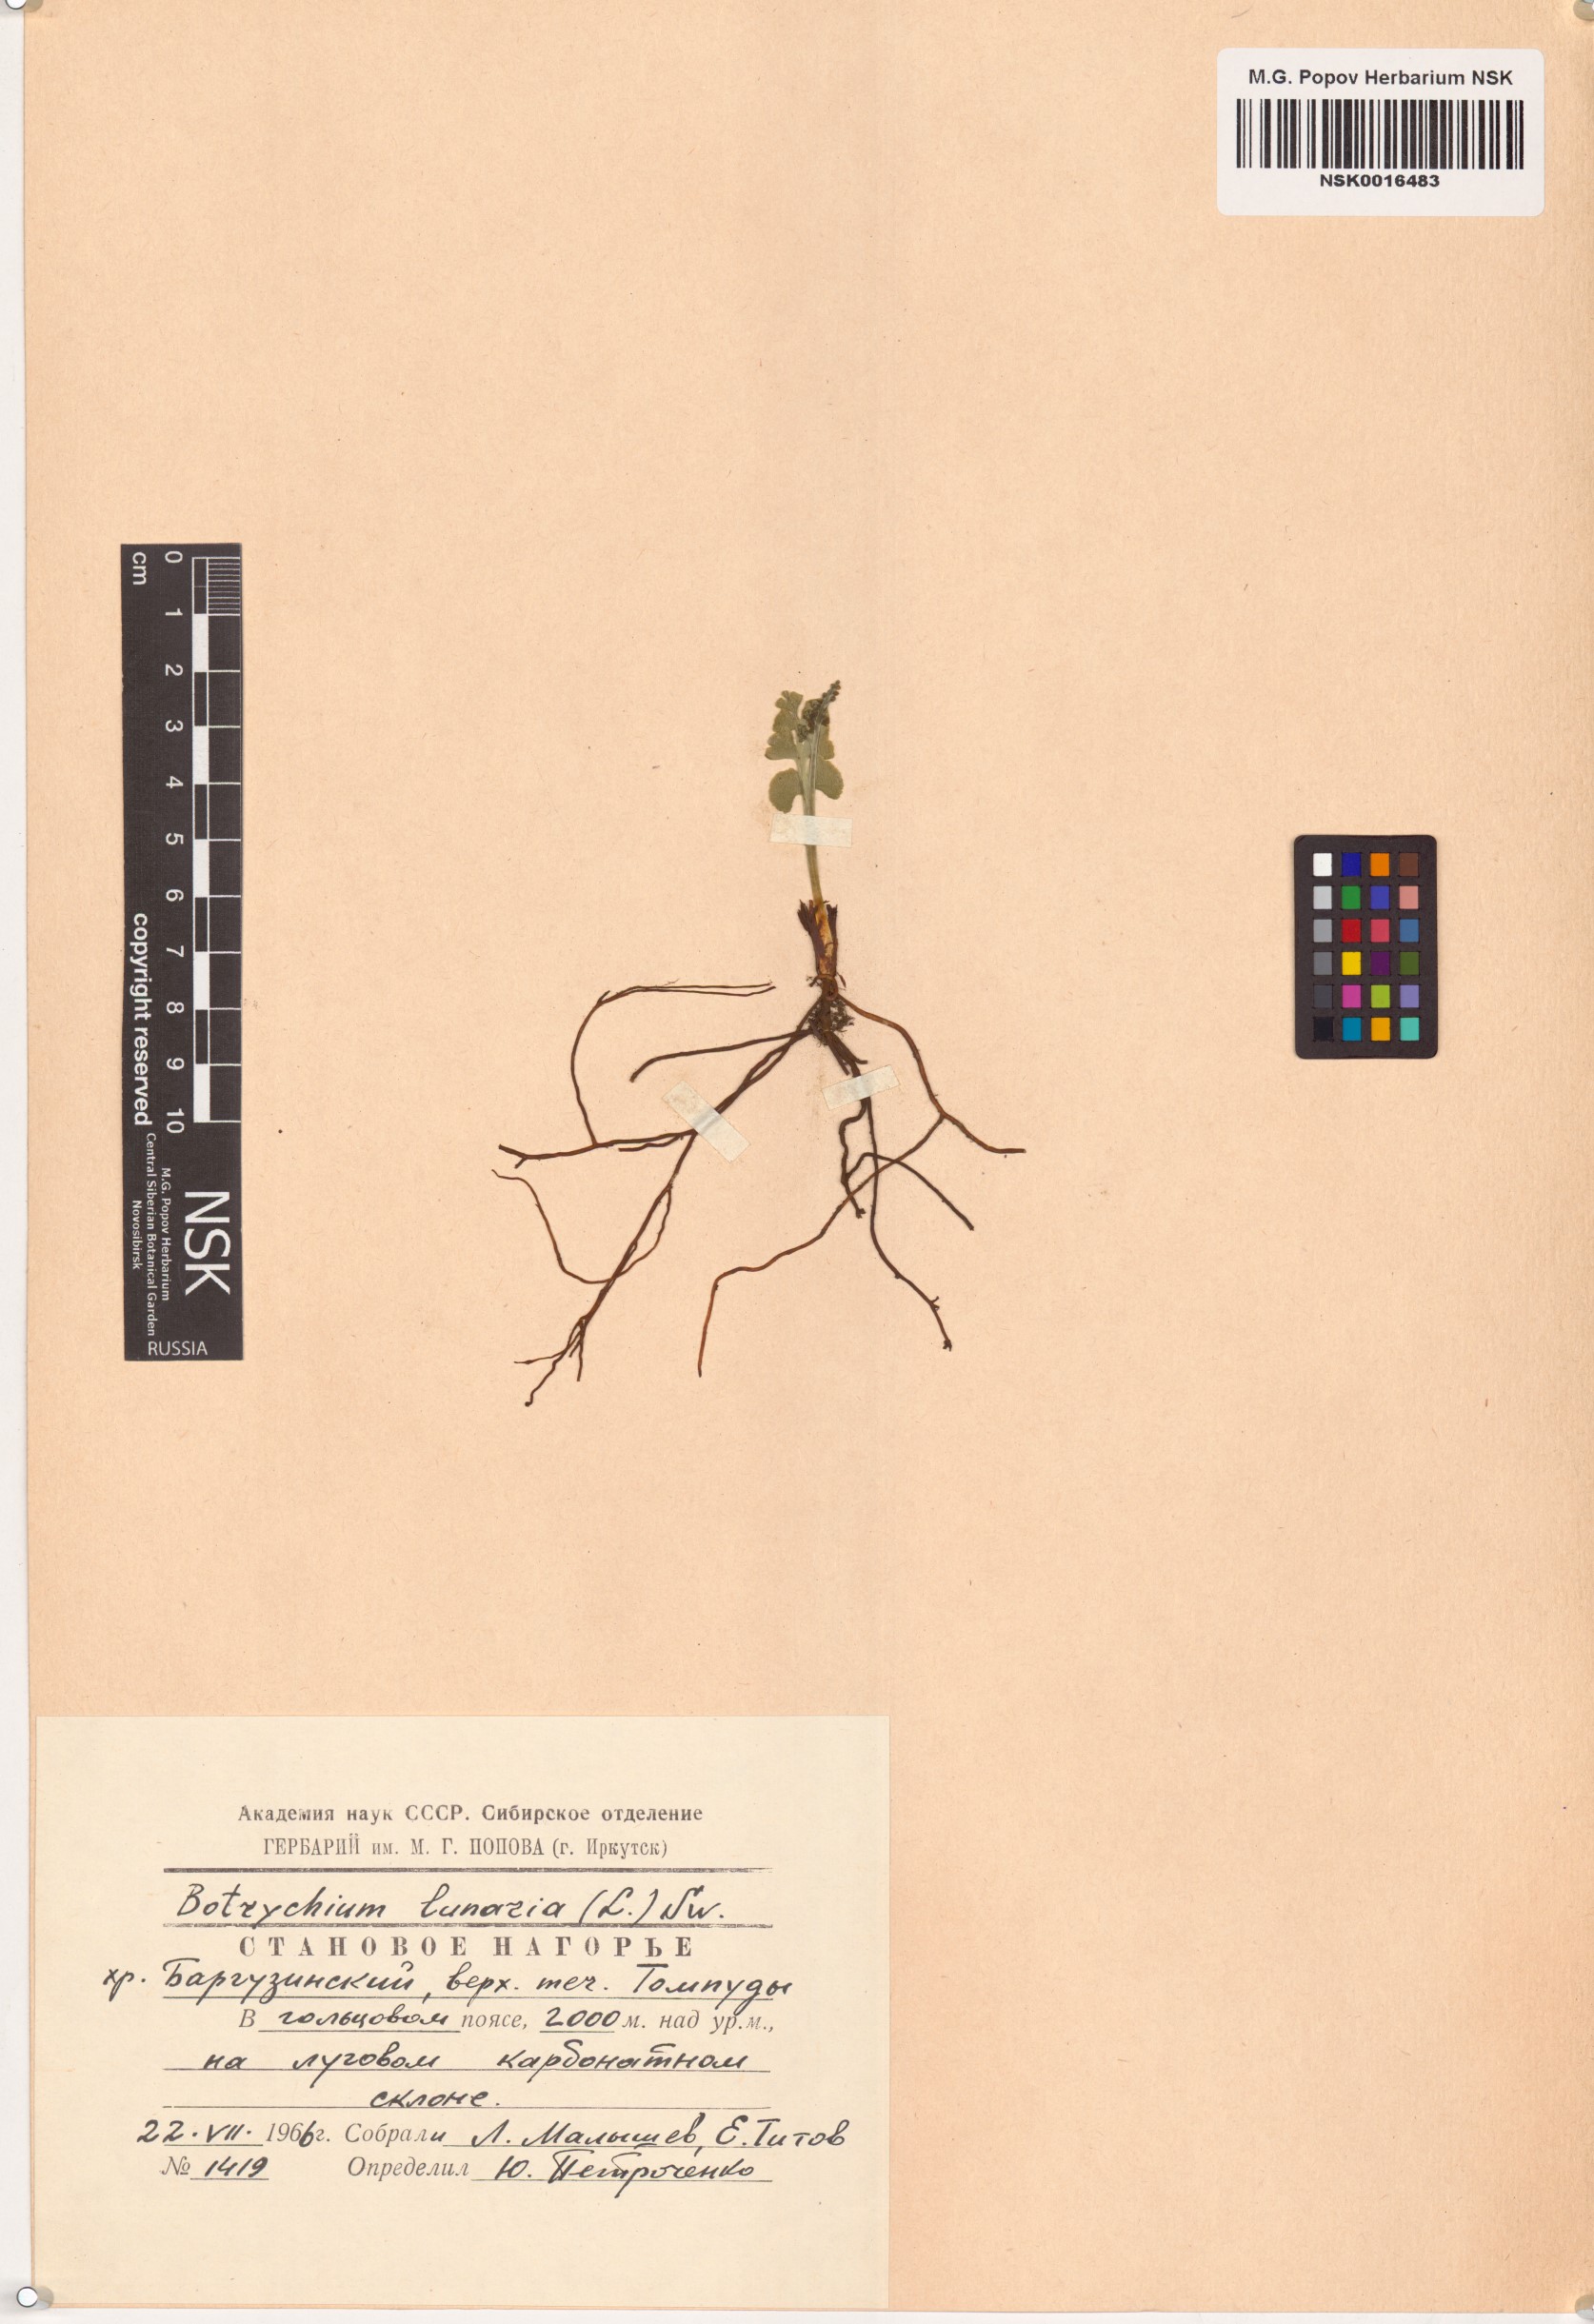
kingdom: Plantae
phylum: Tracheophyta
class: Polypodiopsida
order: Ophioglossales
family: Ophioglossaceae
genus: Botrychium
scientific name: Botrychium lunaria
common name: Moonwort
